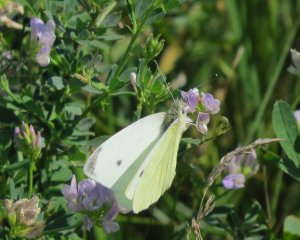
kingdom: Animalia
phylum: Arthropoda
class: Insecta
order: Lepidoptera
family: Pieridae
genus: Pieris
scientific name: Pieris rapae
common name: Cabbage White
